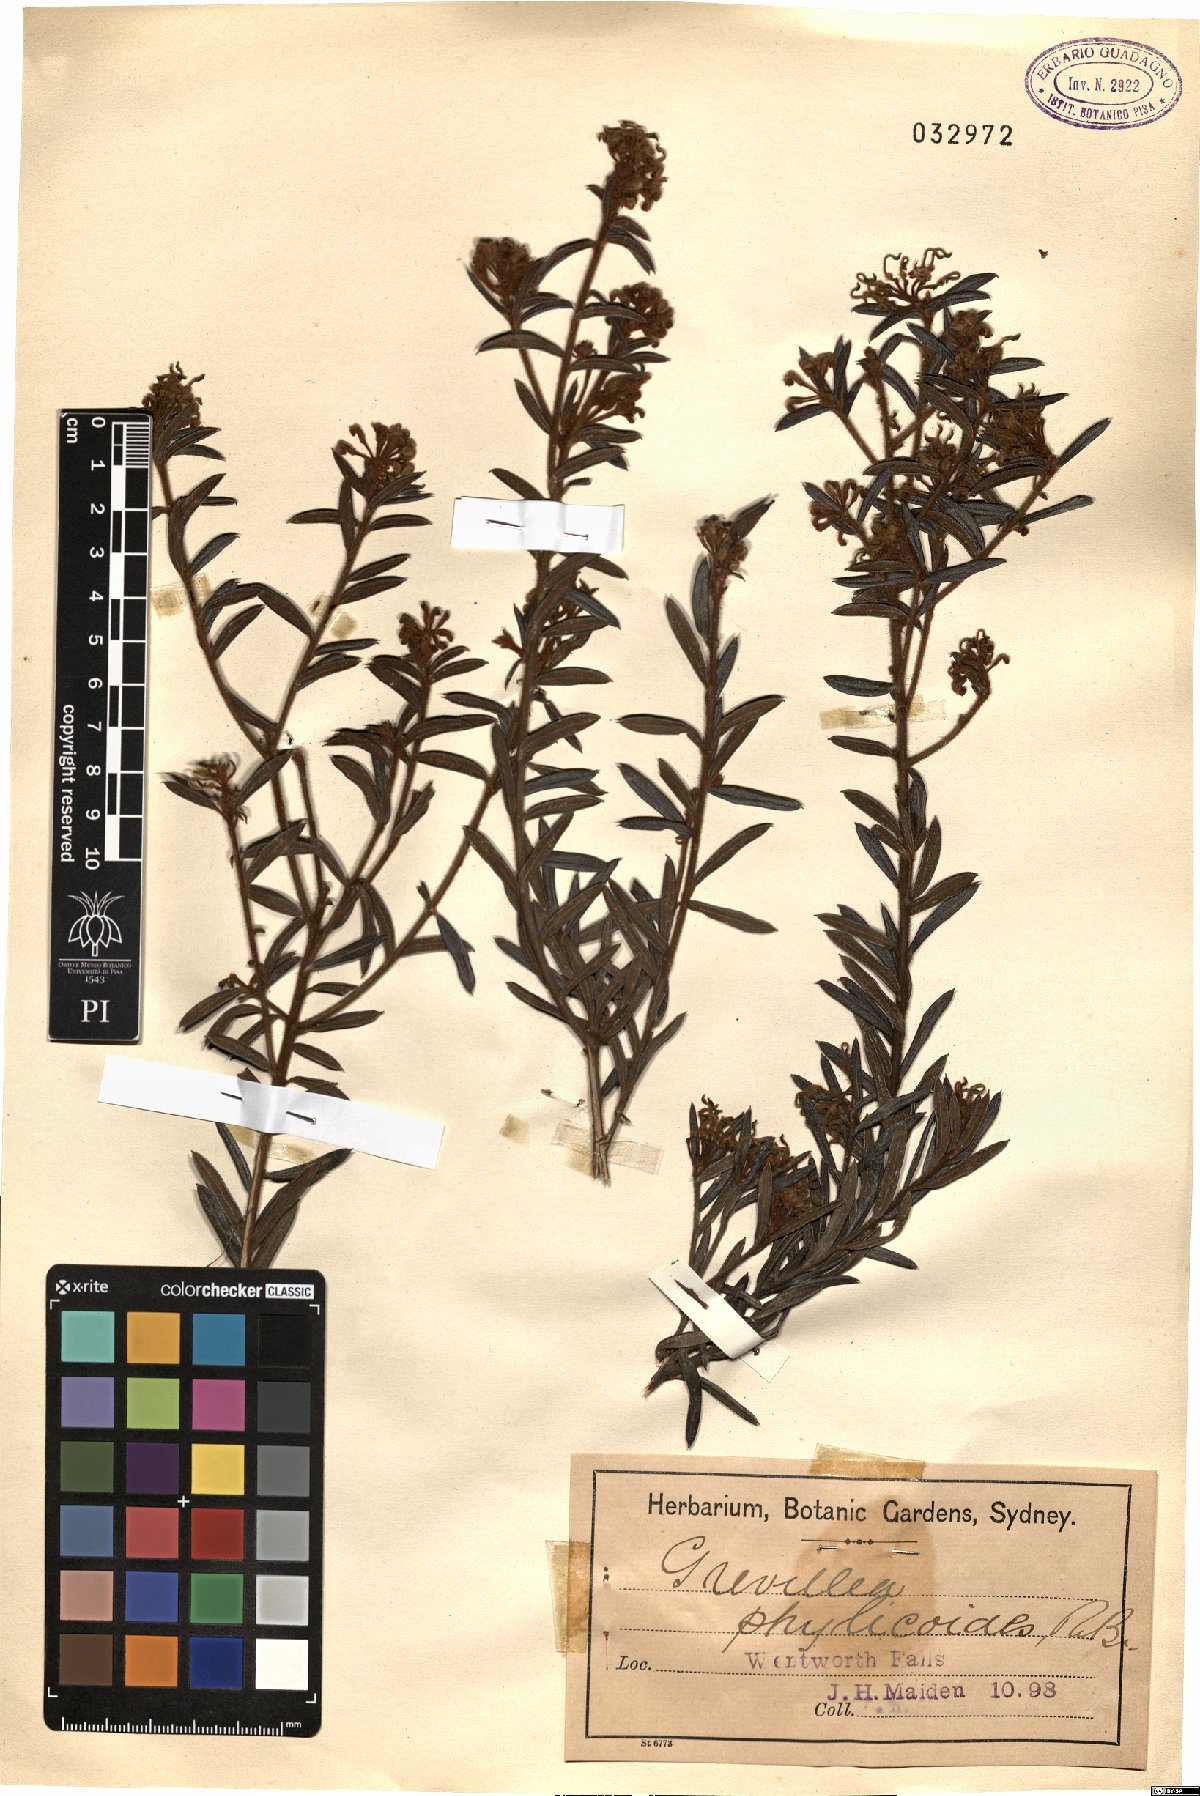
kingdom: Plantae
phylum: Tracheophyta
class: Magnoliopsida
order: Proteales
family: Proteaceae
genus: Grevillea
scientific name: Grevillea phylicoides
